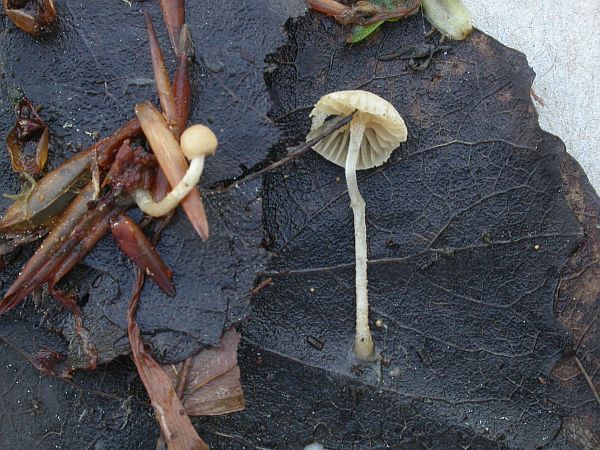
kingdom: Fungi
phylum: Basidiomycota
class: Agaricomycetes
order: Agaricales
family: Tubariaceae
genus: Flammulaster
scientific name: Flammulaster carpophilus
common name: bøge-grynskælhat
